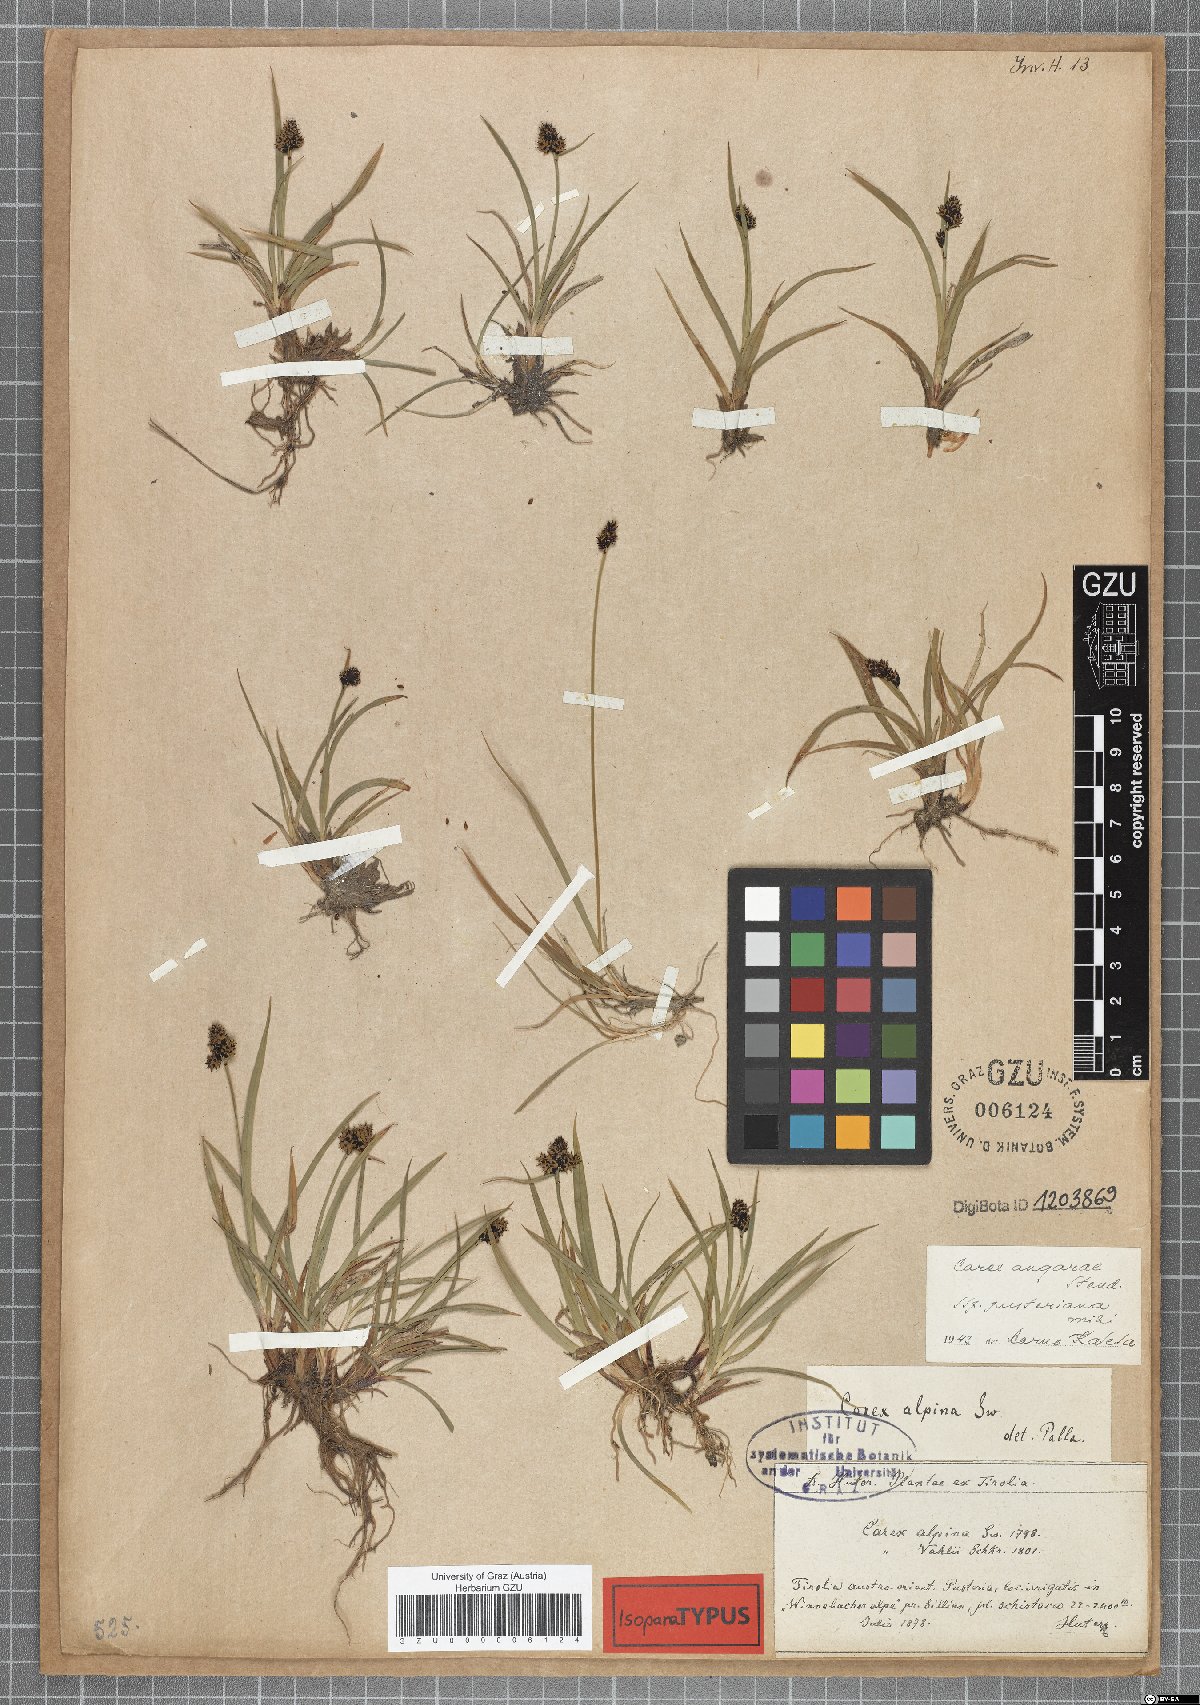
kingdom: Plantae
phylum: Tracheophyta
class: Liliopsida
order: Poales
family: Cyperaceae
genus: Carex
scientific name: Carex norvegica
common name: Close-headed alpine-sedge
